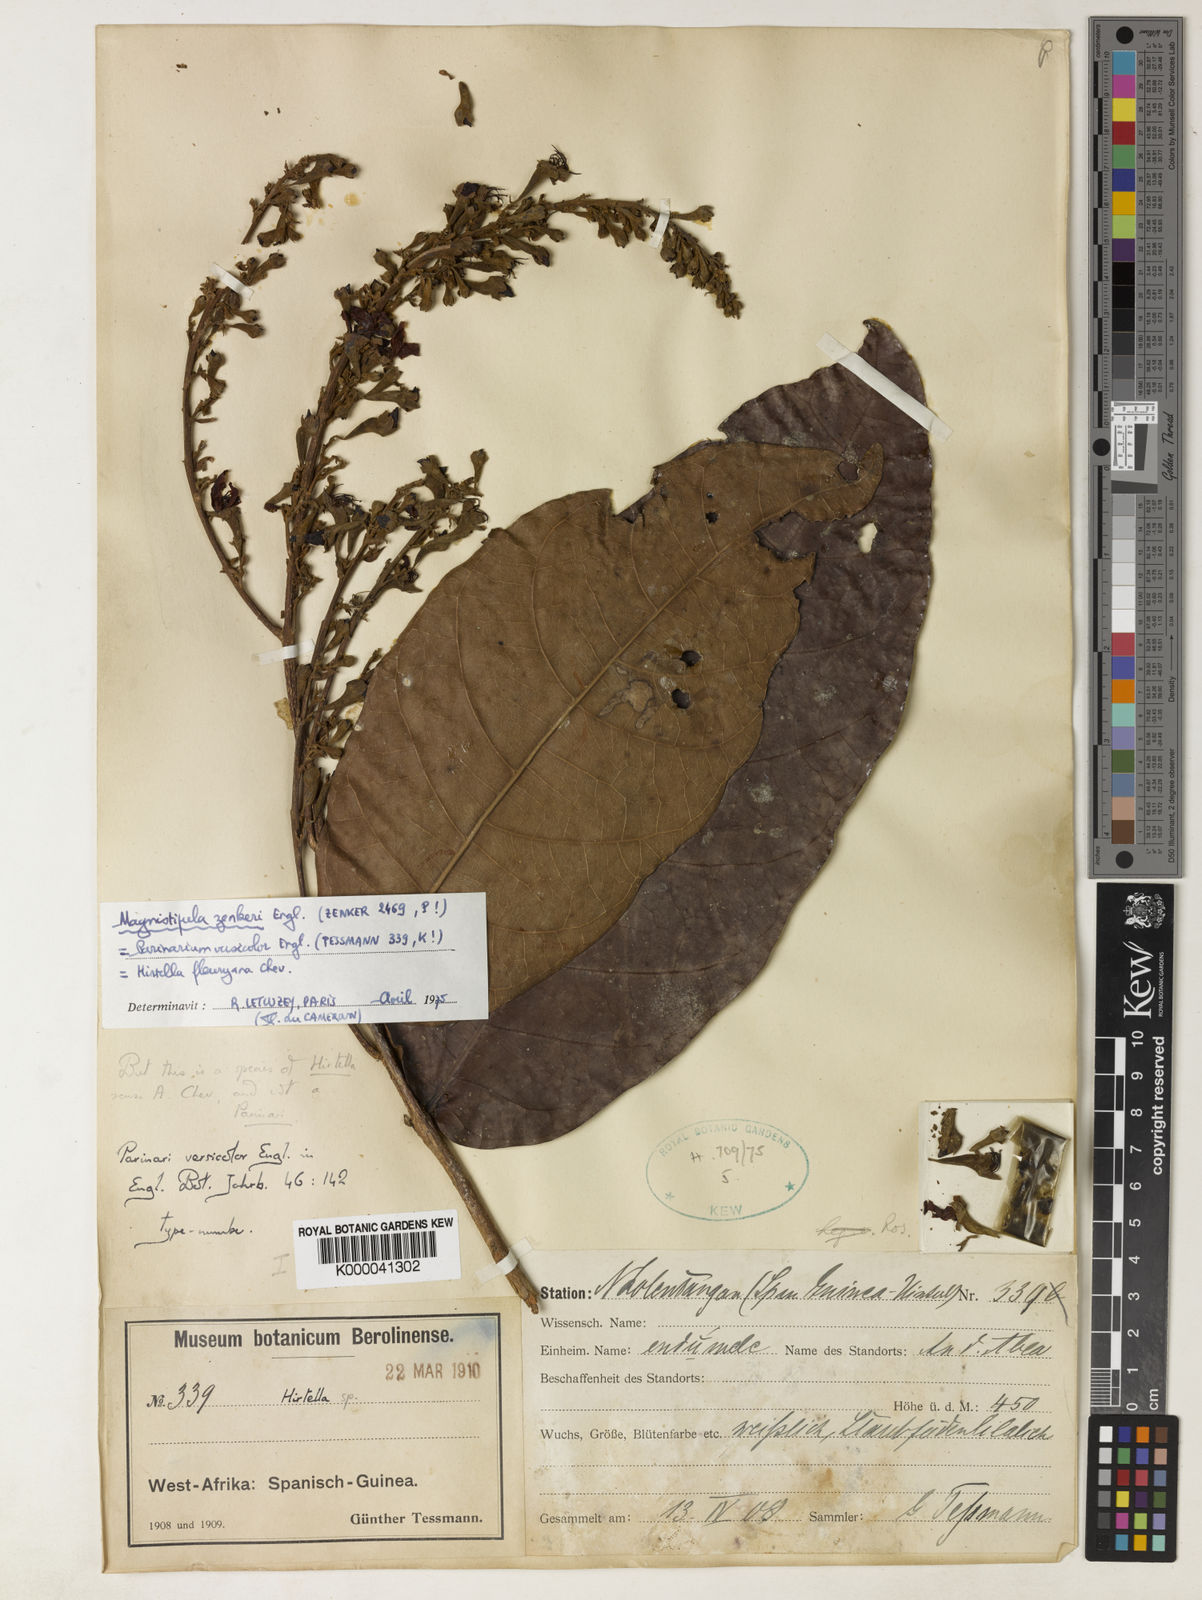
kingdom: Plantae
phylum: Tracheophyta
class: Magnoliopsida
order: Malpighiales
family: Chrysobalanaceae
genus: Magnistipula
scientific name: Magnistipula zenkeri
